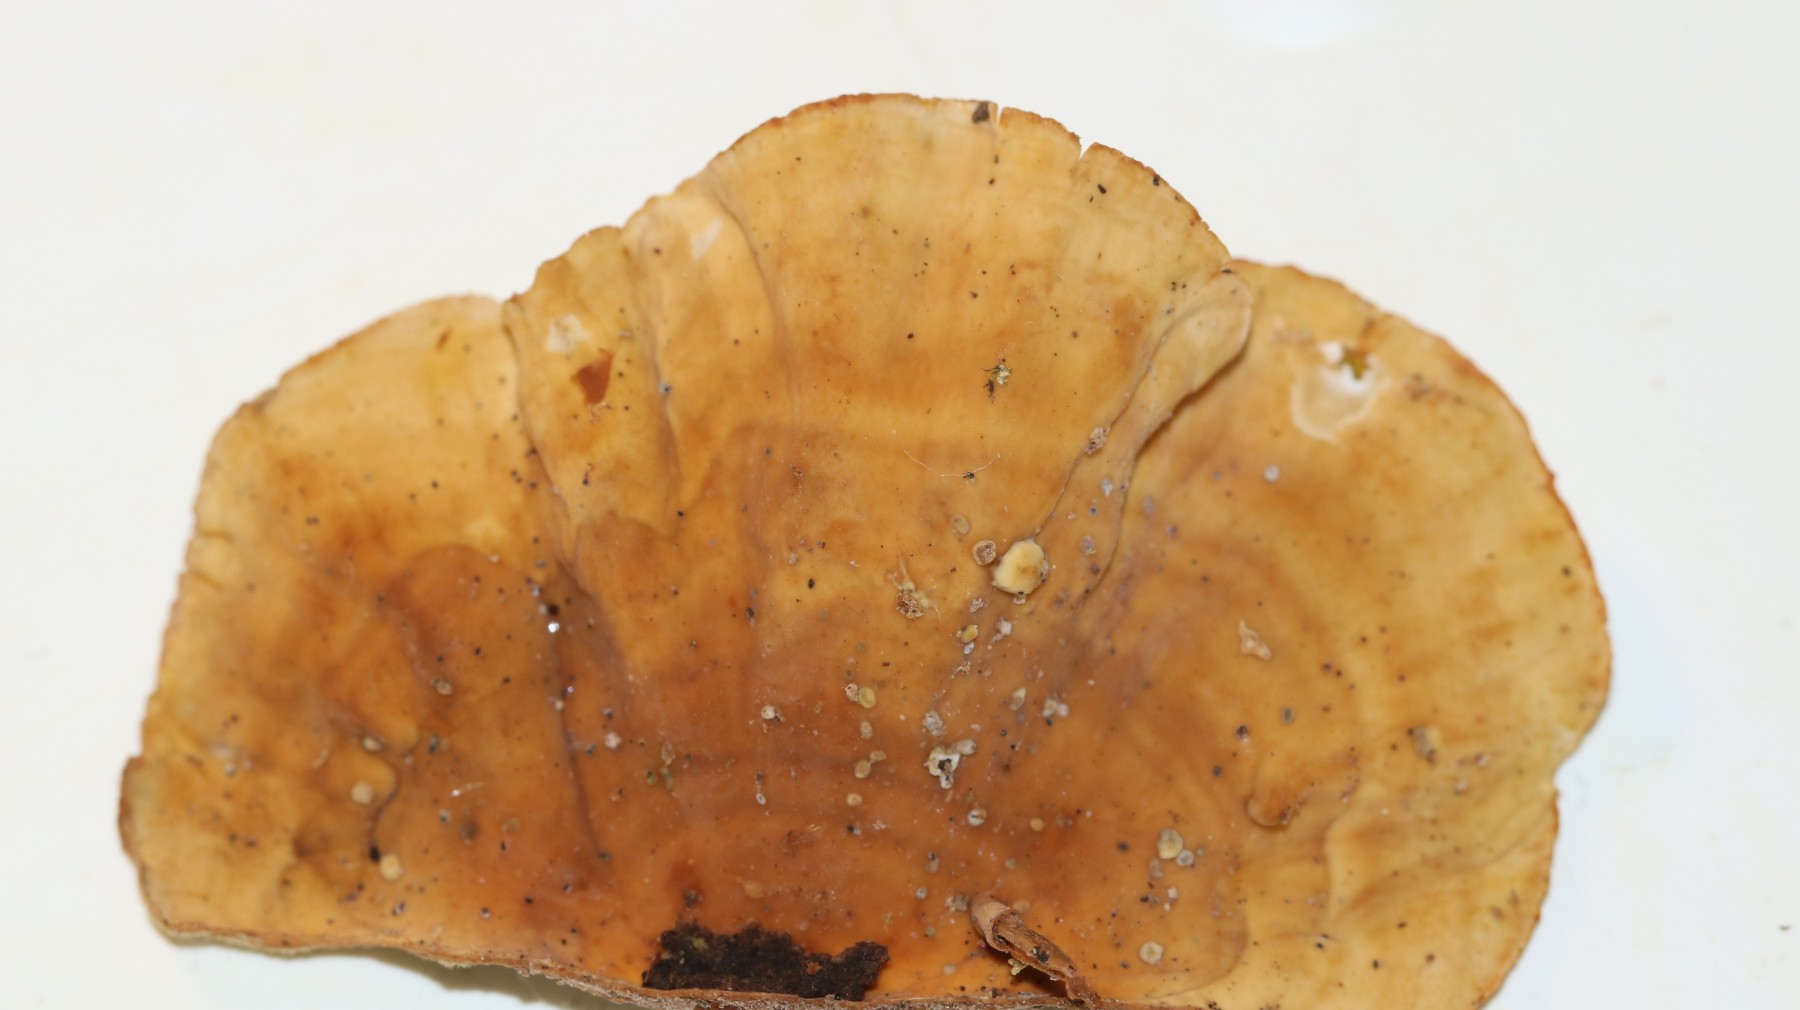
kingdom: Fungi
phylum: Basidiomycota
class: Agaricomycetes
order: Russulales
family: Stereaceae
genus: Stereum
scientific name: Stereum subtomentosum
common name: smuk lædersvamp
